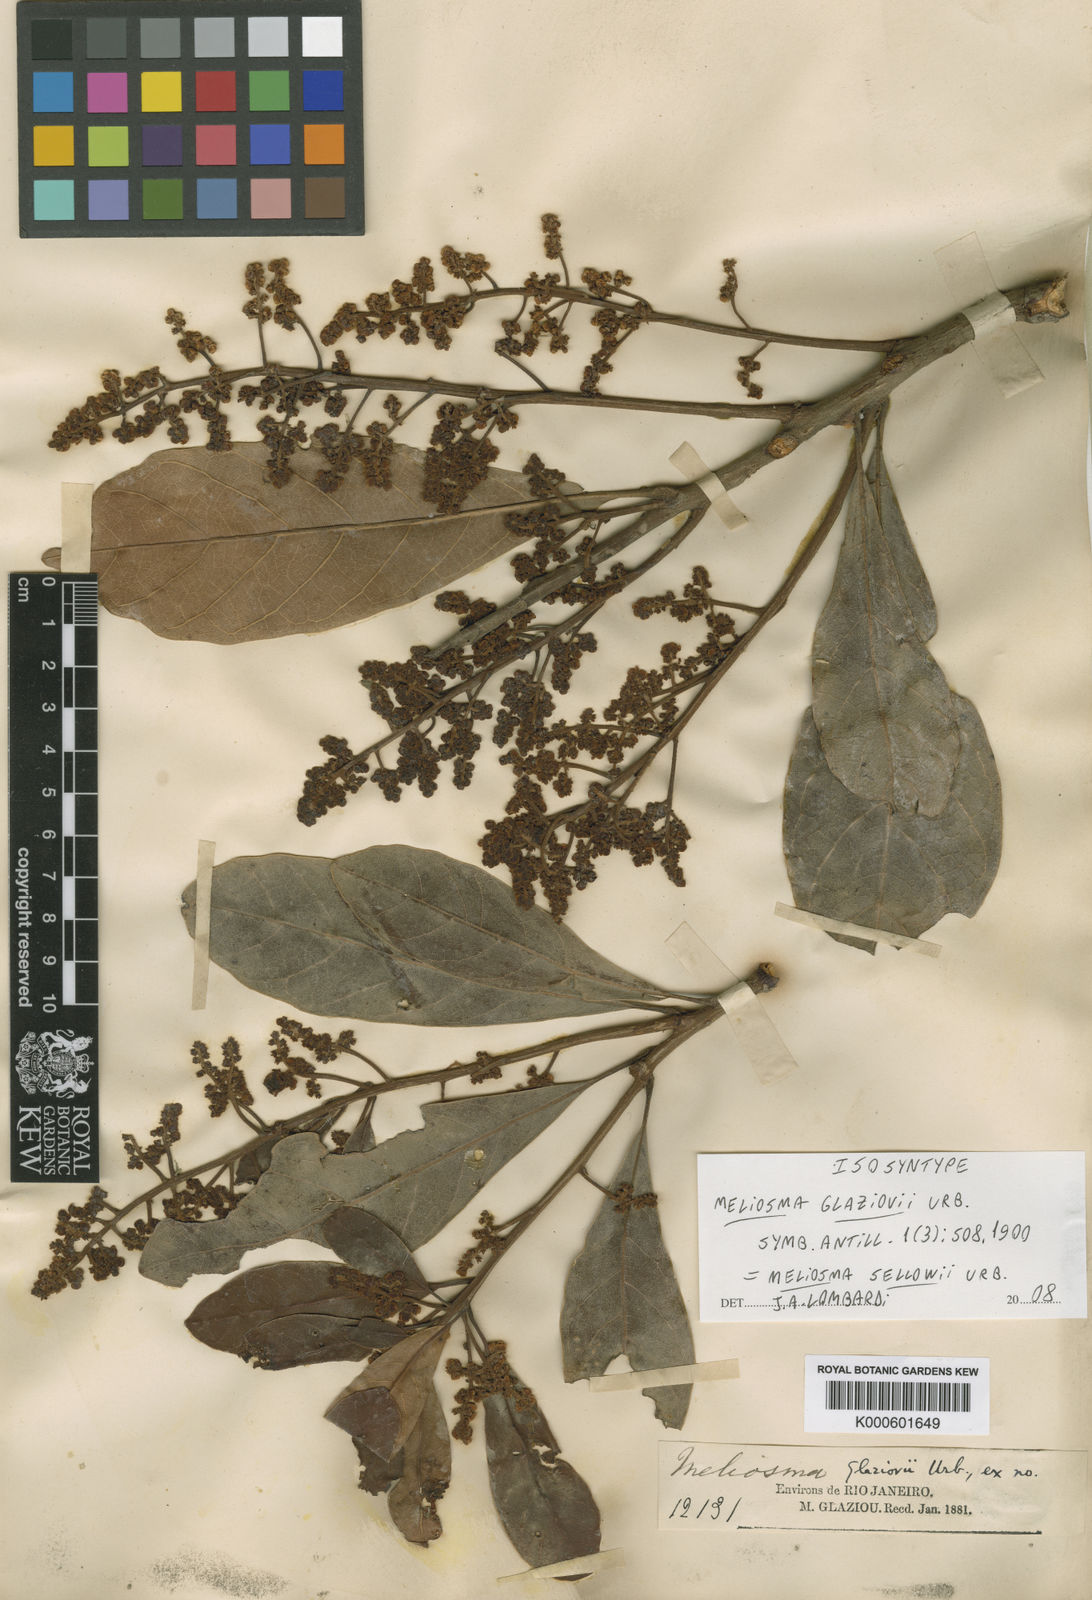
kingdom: Plantae
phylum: Tracheophyta
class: Magnoliopsida
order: Proteales
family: Sabiaceae
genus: Meliosma
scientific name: Meliosma sellowii
